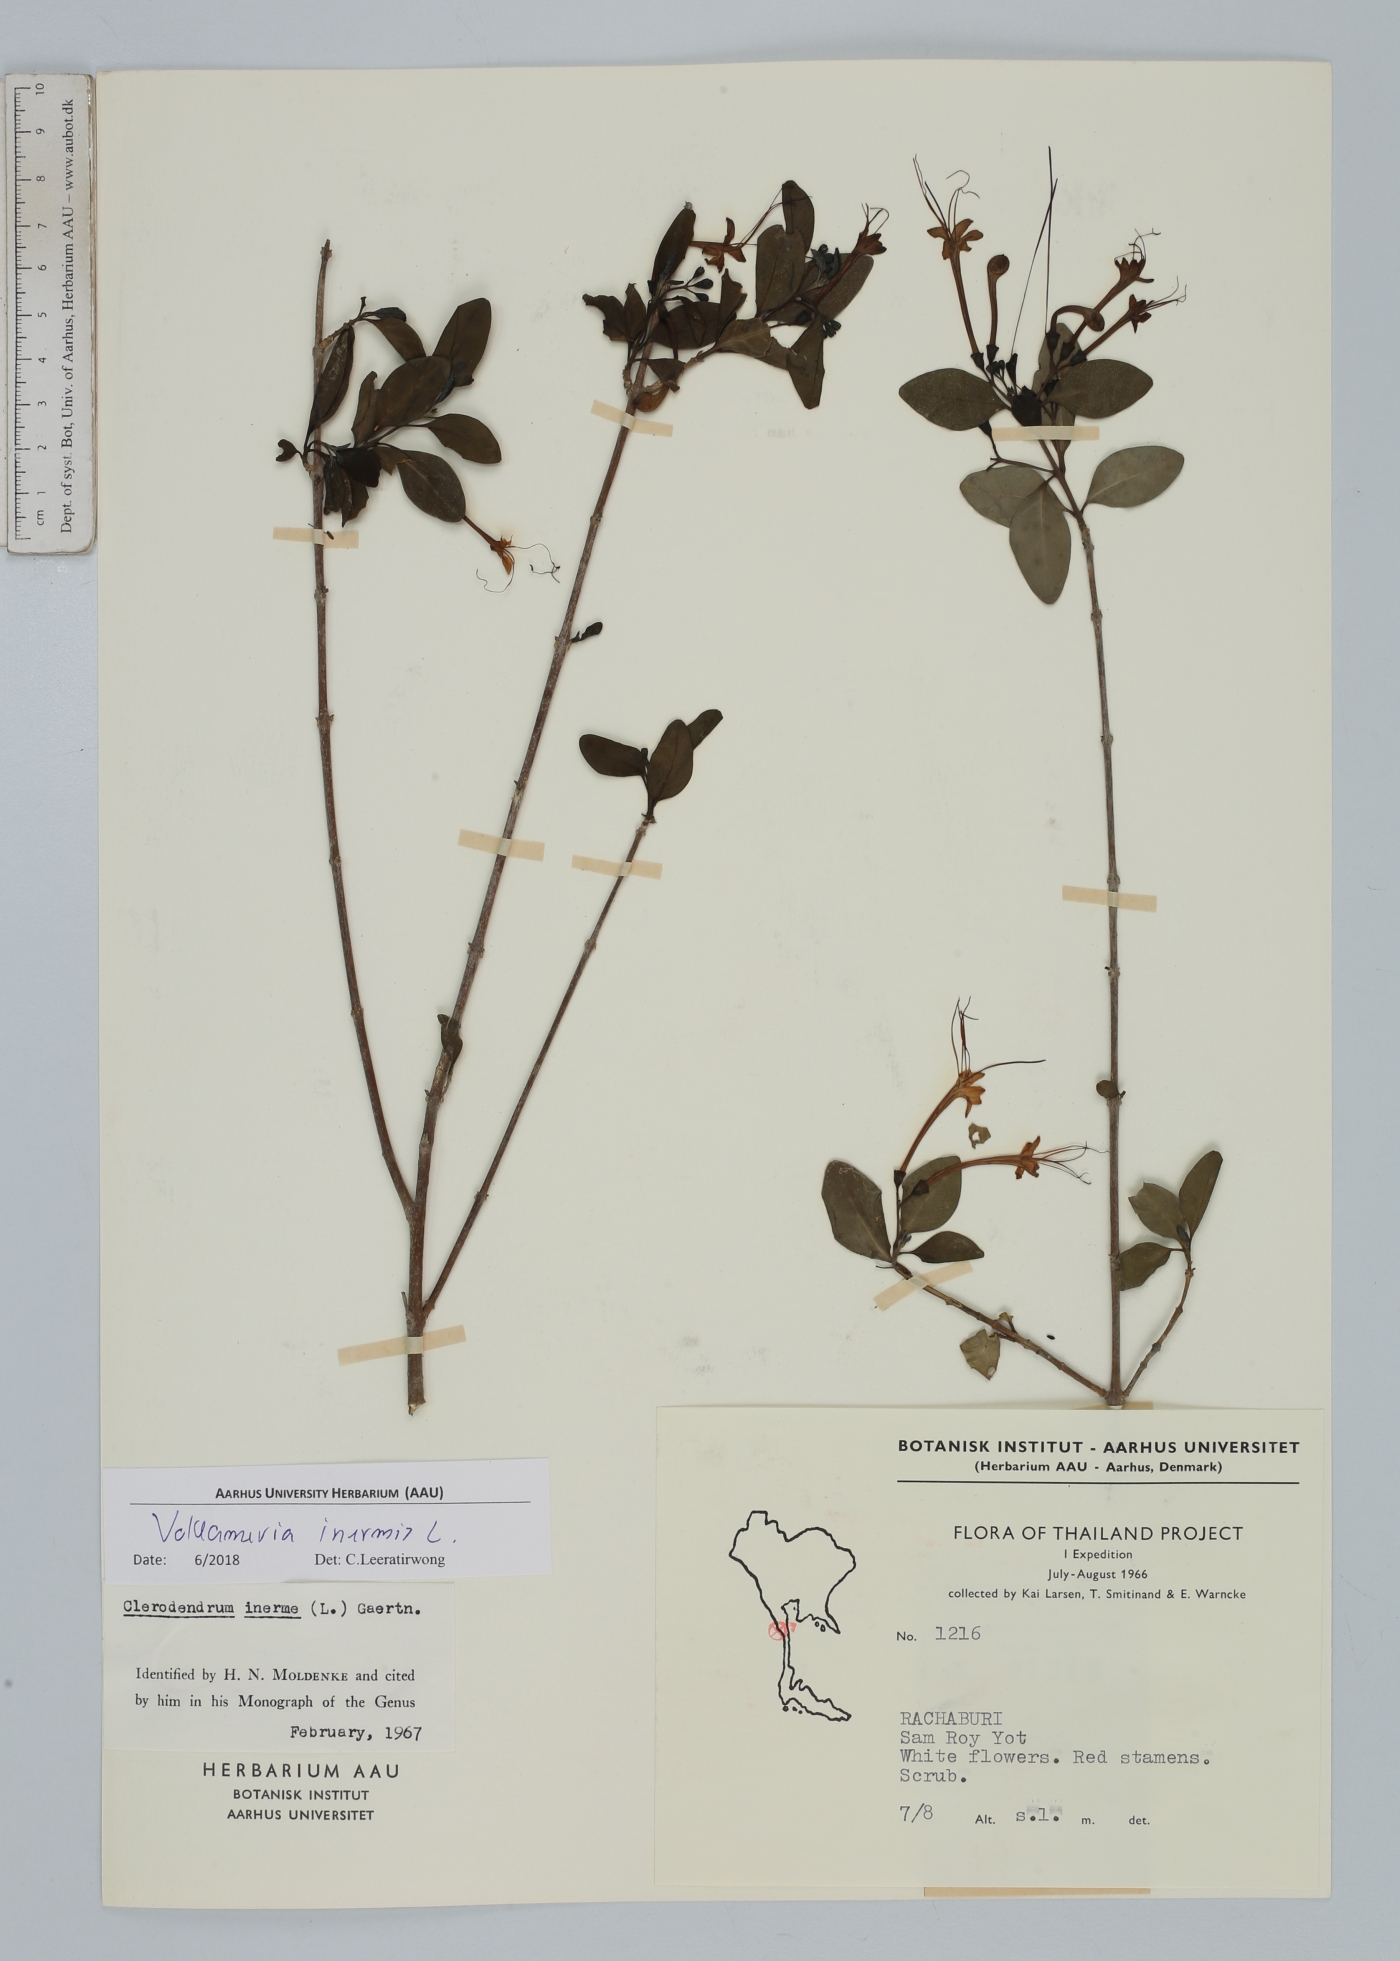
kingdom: Plantae
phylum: Tracheophyta
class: Magnoliopsida
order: Lamiales
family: Lamiaceae
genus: Volkameria
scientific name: Volkameria inermis
